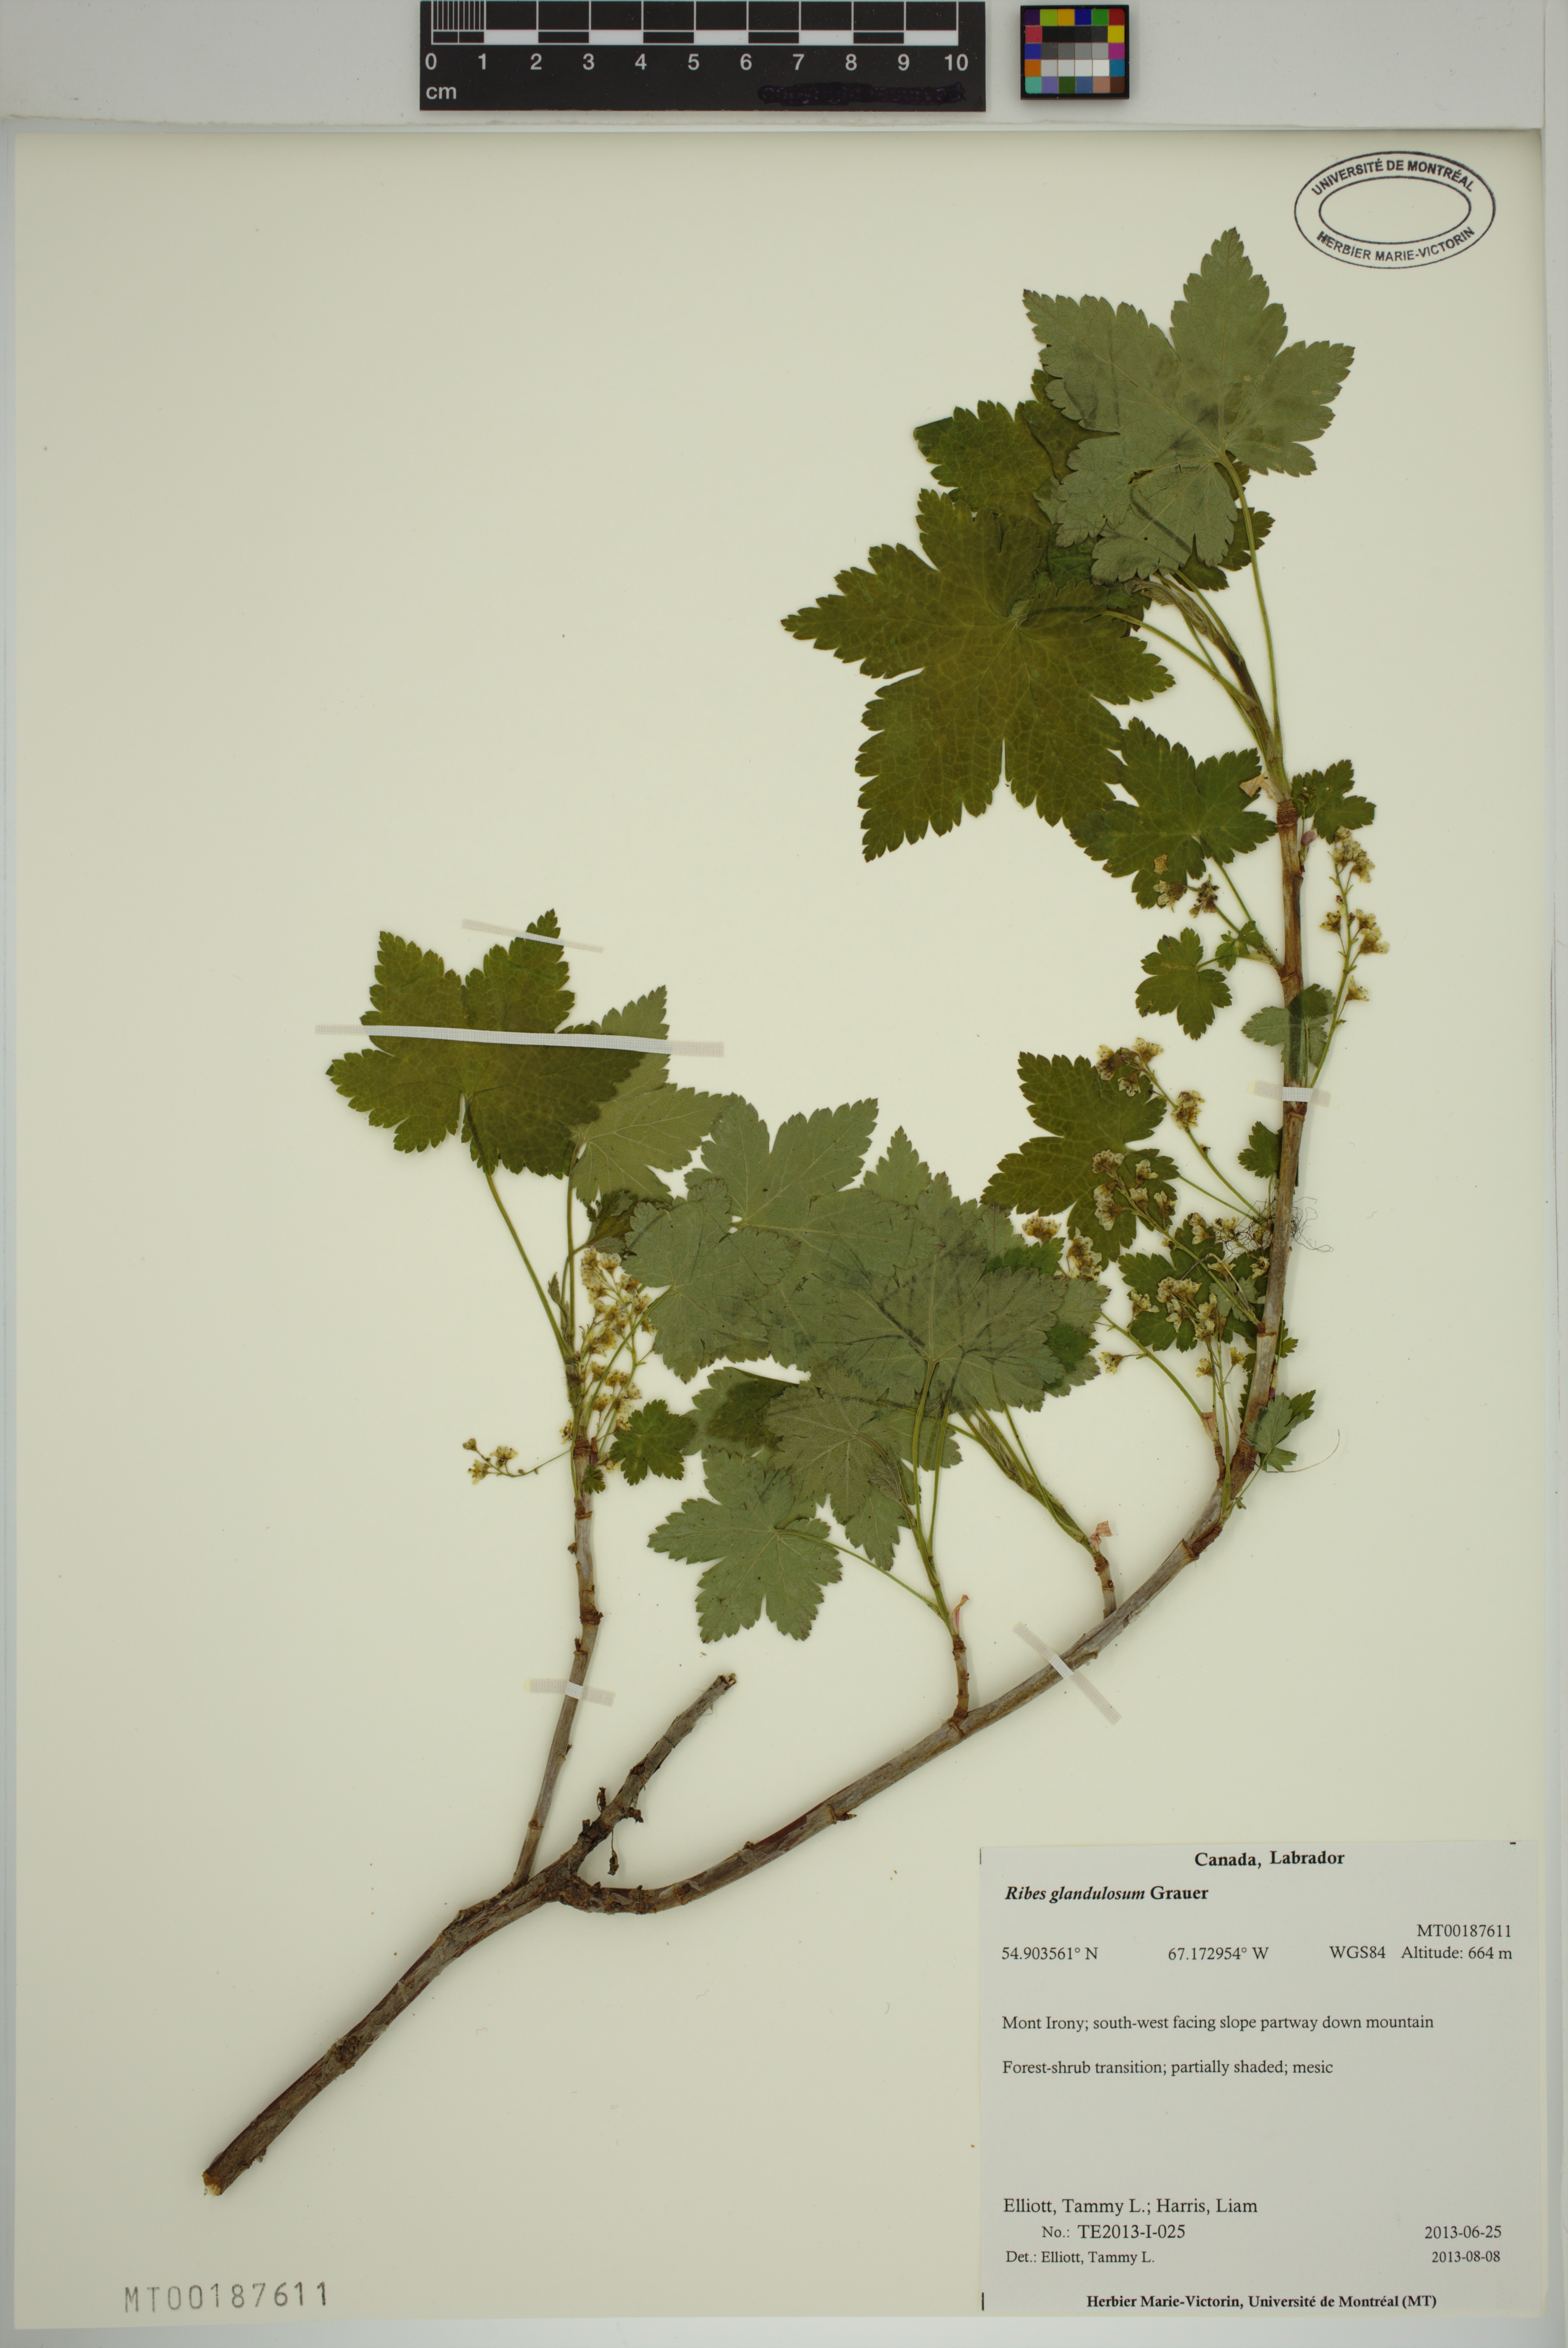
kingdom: Plantae
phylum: Tracheophyta
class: Magnoliopsida
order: Saxifragales
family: Grossulariaceae
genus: Ribes
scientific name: Ribes glandulosum
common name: Skunk currant
